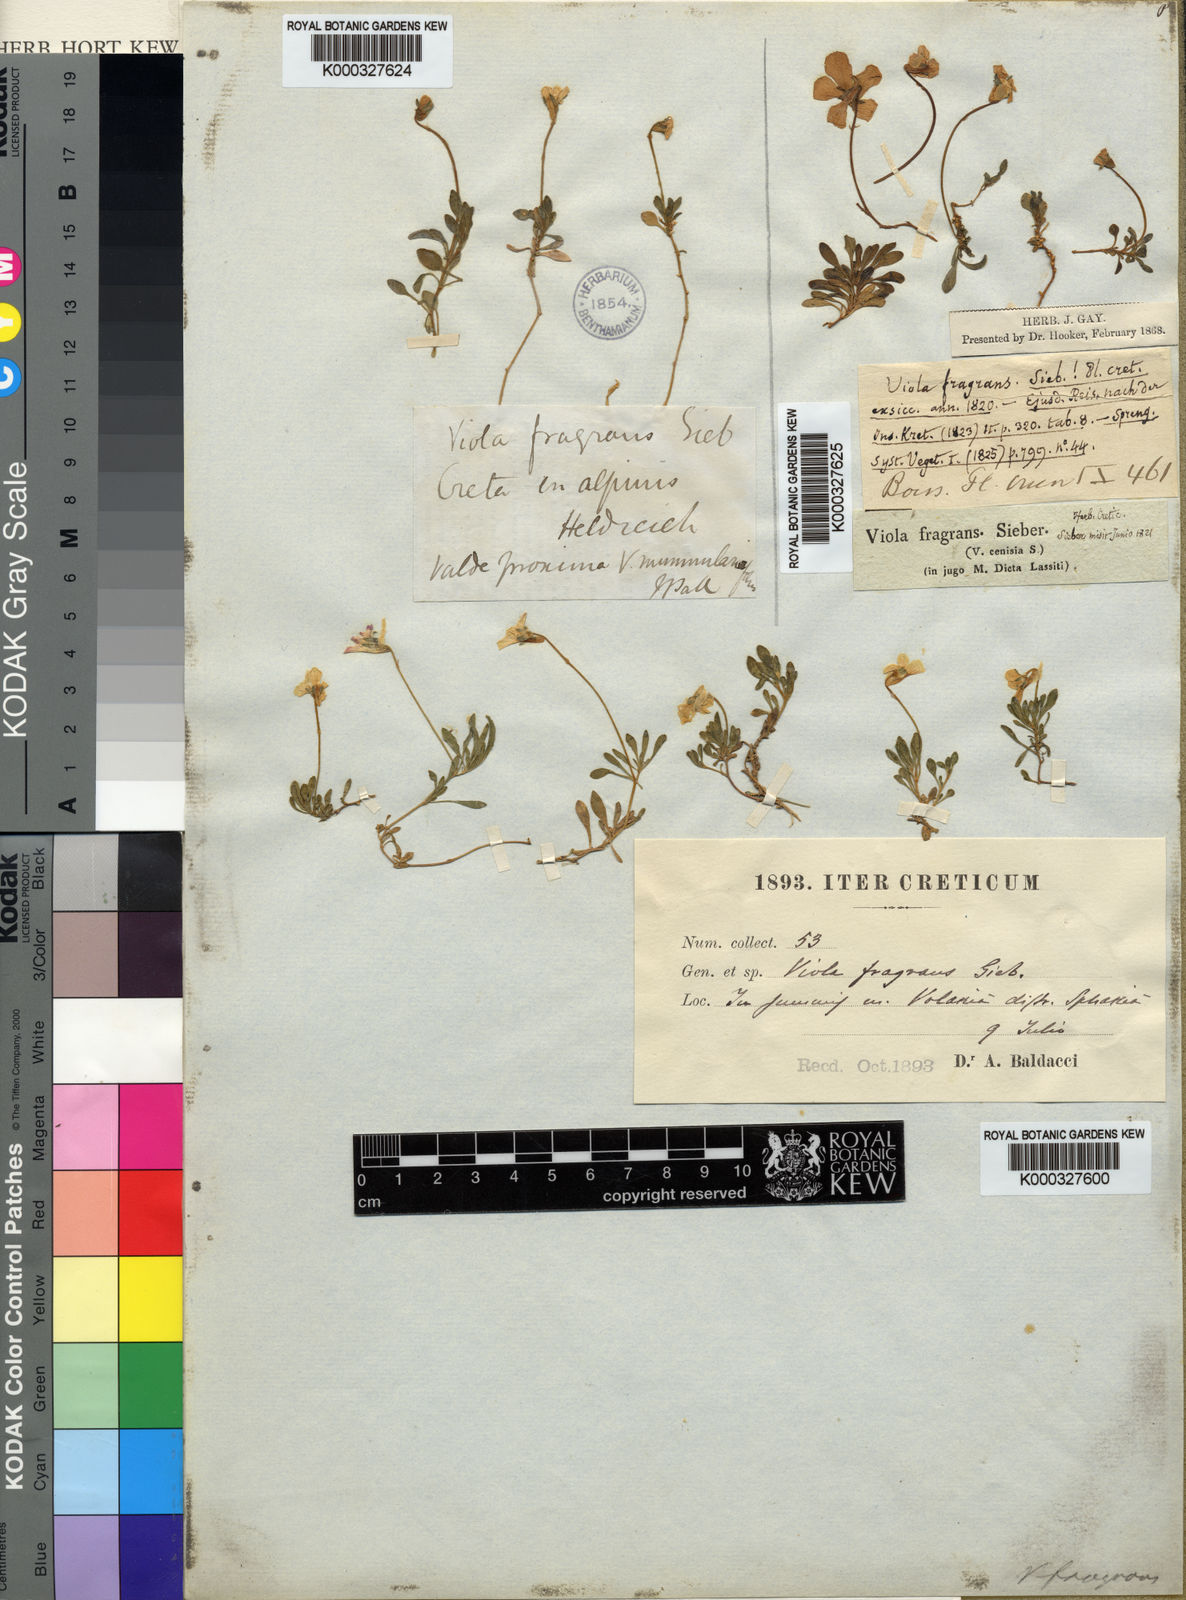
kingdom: Plantae
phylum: Tracheophyta
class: Magnoliopsida
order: Malpighiales
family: Violaceae
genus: Viola
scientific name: Viola fragrans
